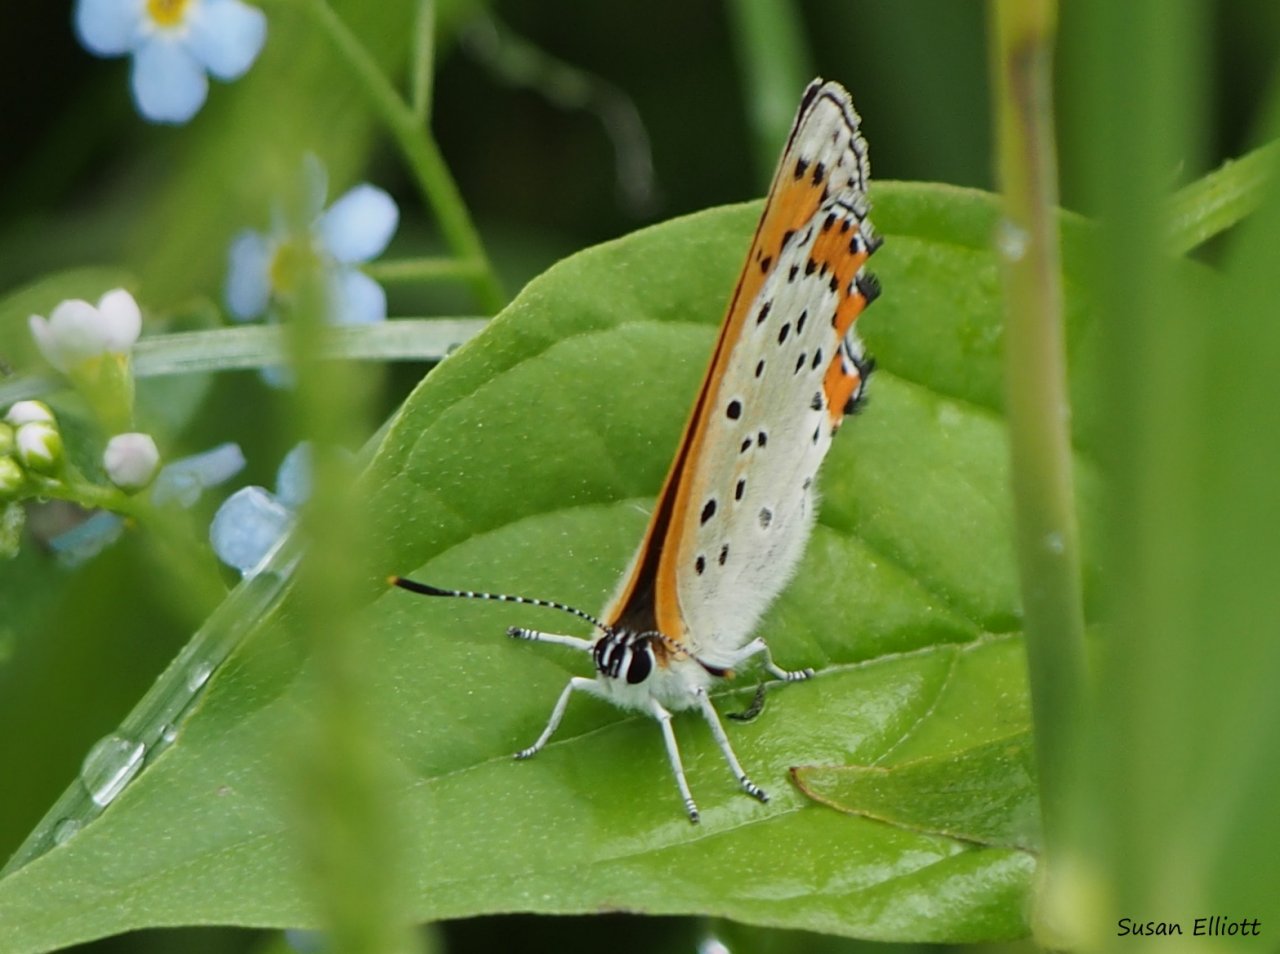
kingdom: Animalia
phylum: Arthropoda
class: Insecta
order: Lepidoptera
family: Lycaenidae
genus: Lycaena
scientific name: Lycaena phlaeas
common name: American Copper
